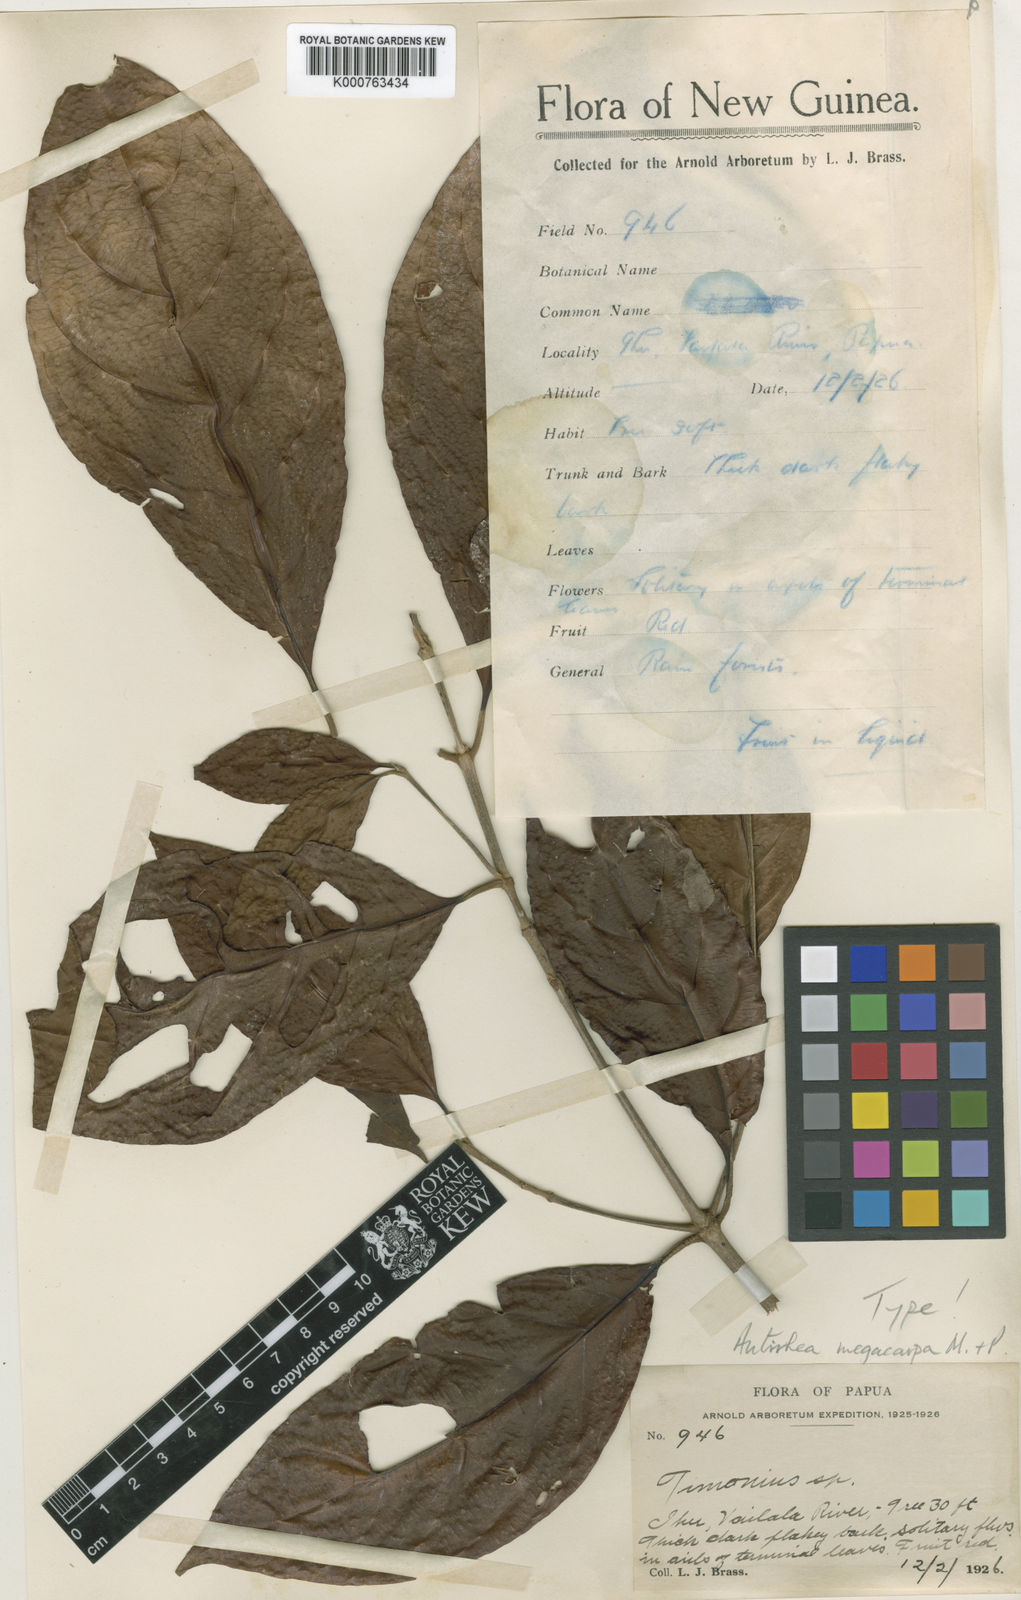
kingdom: Plantae
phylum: Tracheophyta
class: Magnoliopsida
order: Gentianales
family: Rubiaceae
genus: Achilleanthus
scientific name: Achilleanthus megacarpus
